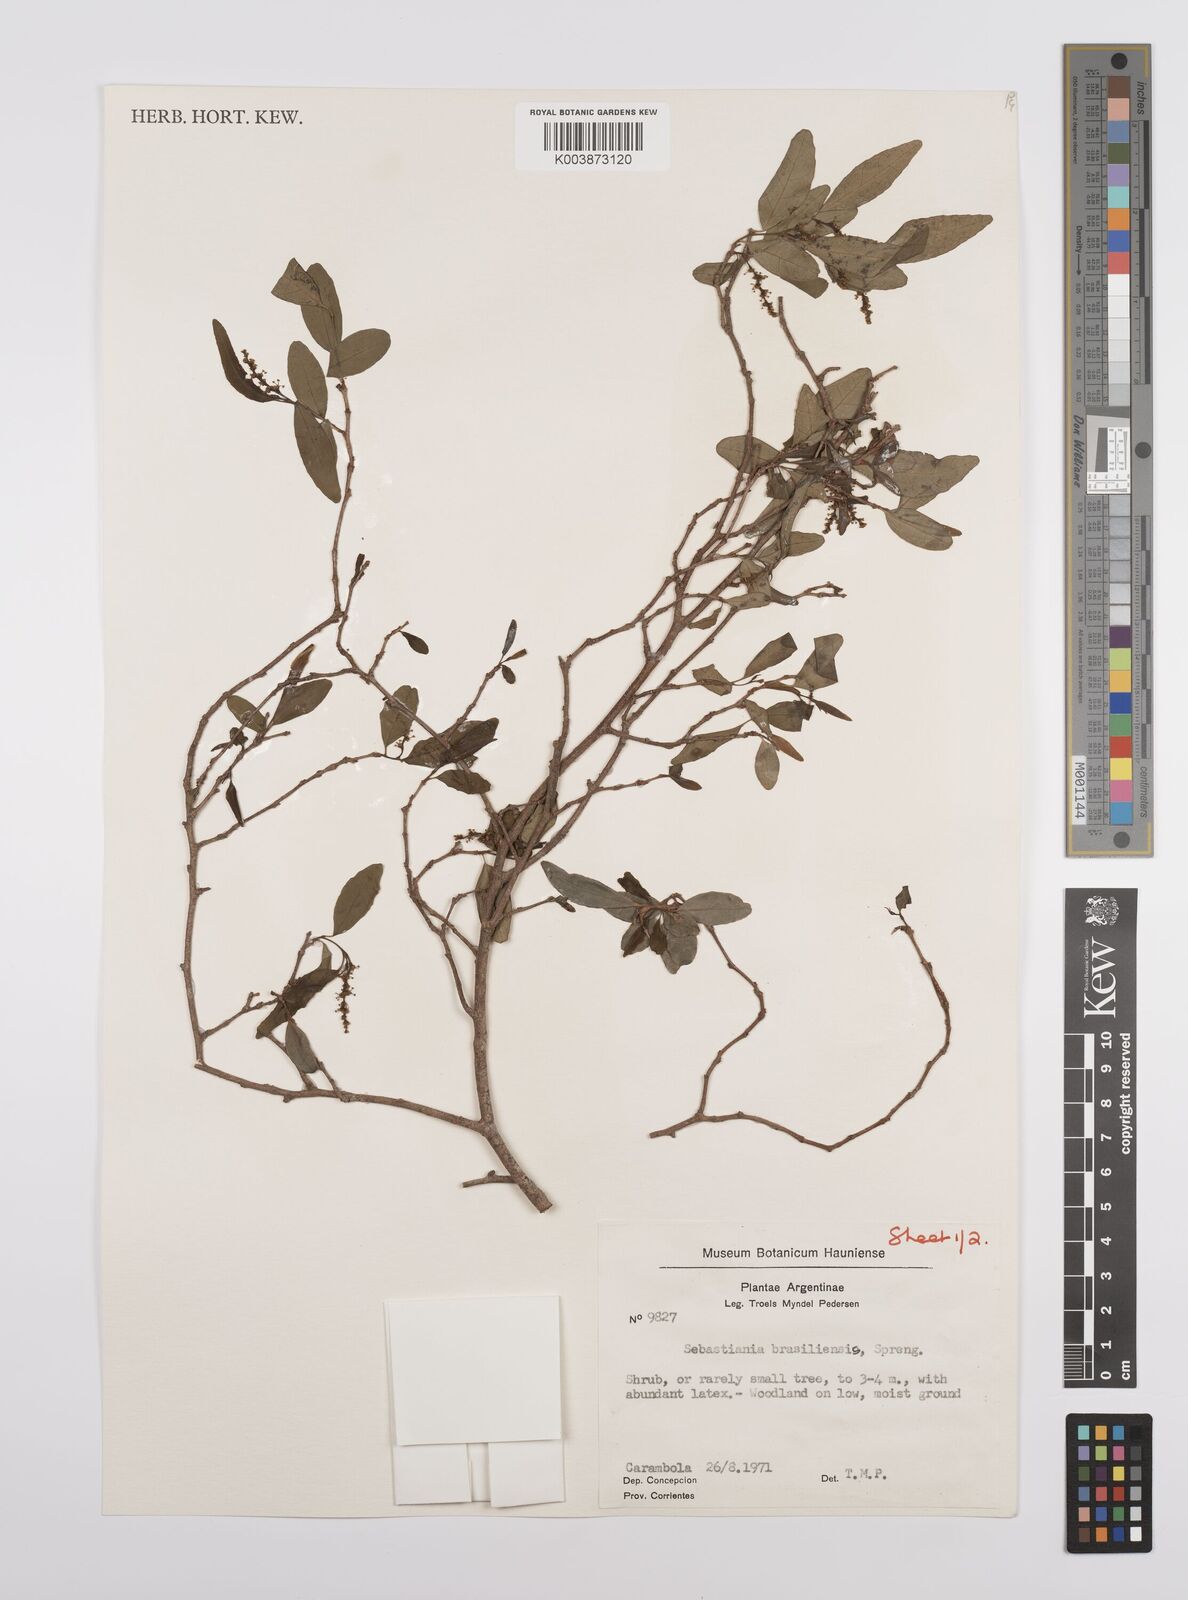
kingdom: Plantae
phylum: Tracheophyta
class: Magnoliopsida
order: Malpighiales
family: Euphorbiaceae
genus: Sebastiania
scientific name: Sebastiania brasiliensis
